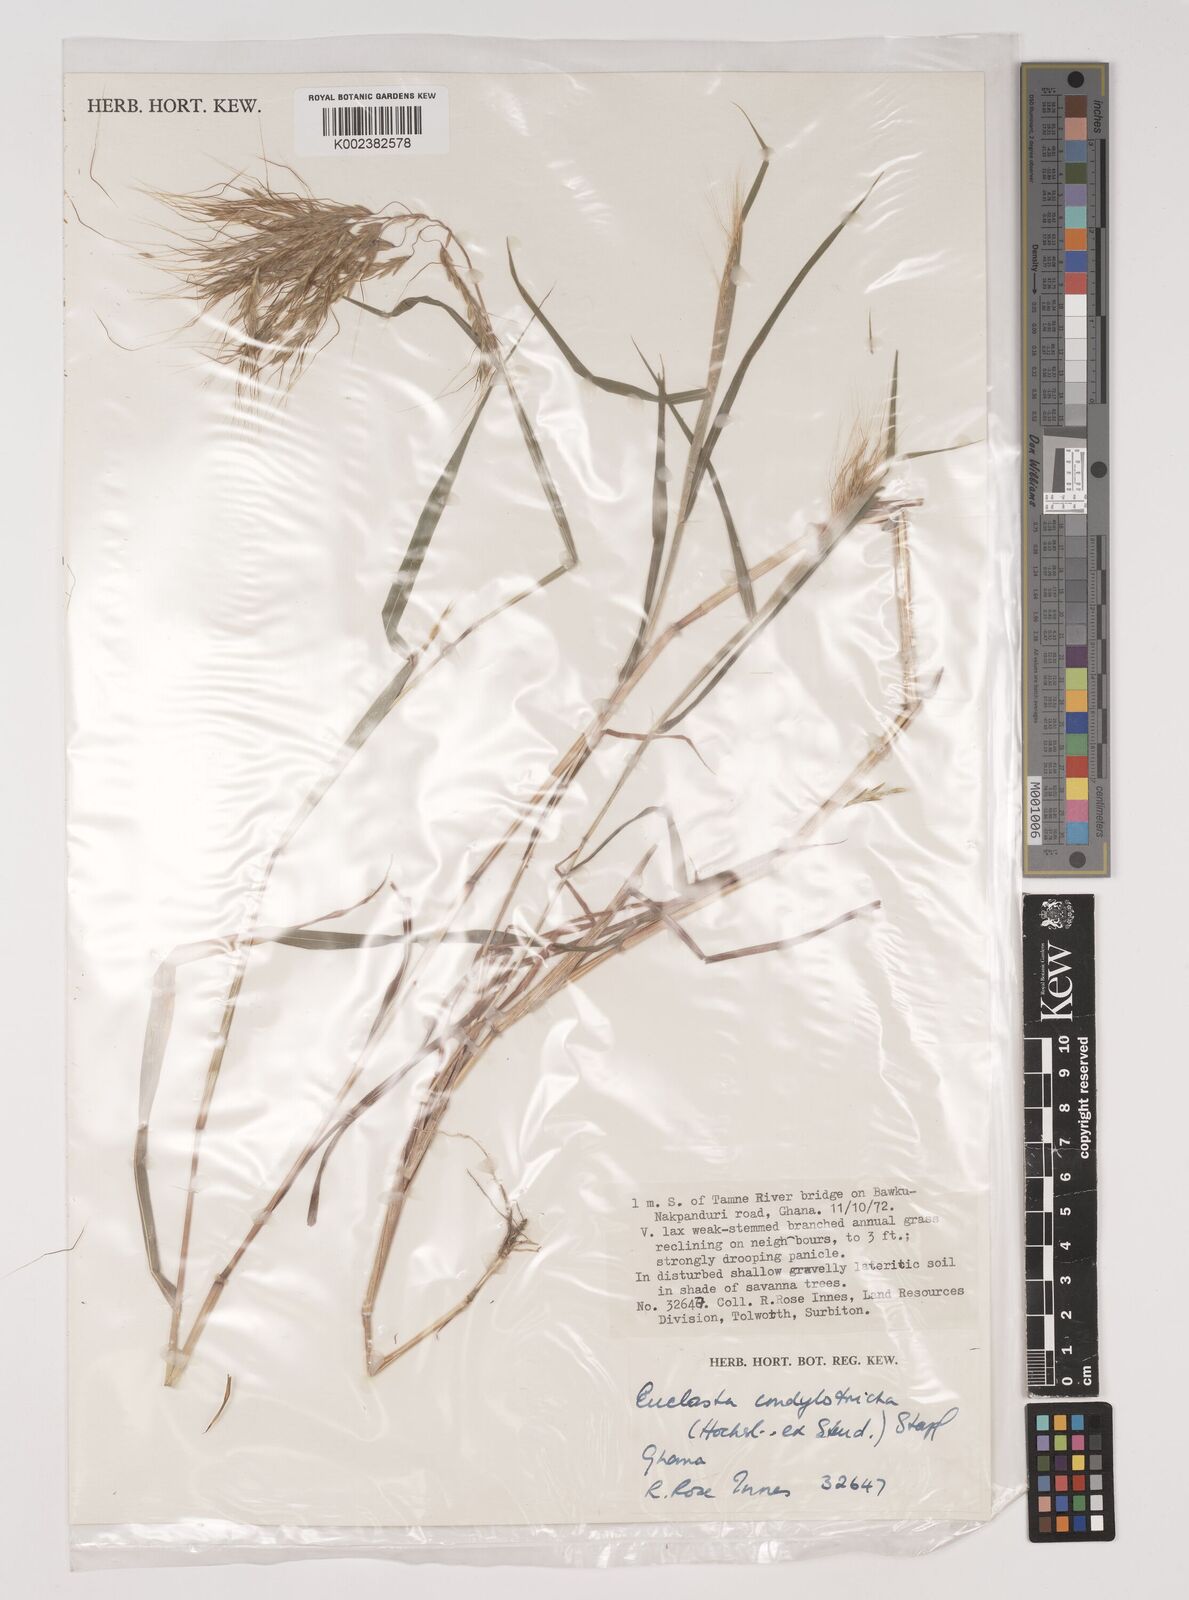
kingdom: Plantae
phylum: Tracheophyta
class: Liliopsida
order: Poales
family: Poaceae
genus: Euclasta
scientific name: Euclasta condylotricha
